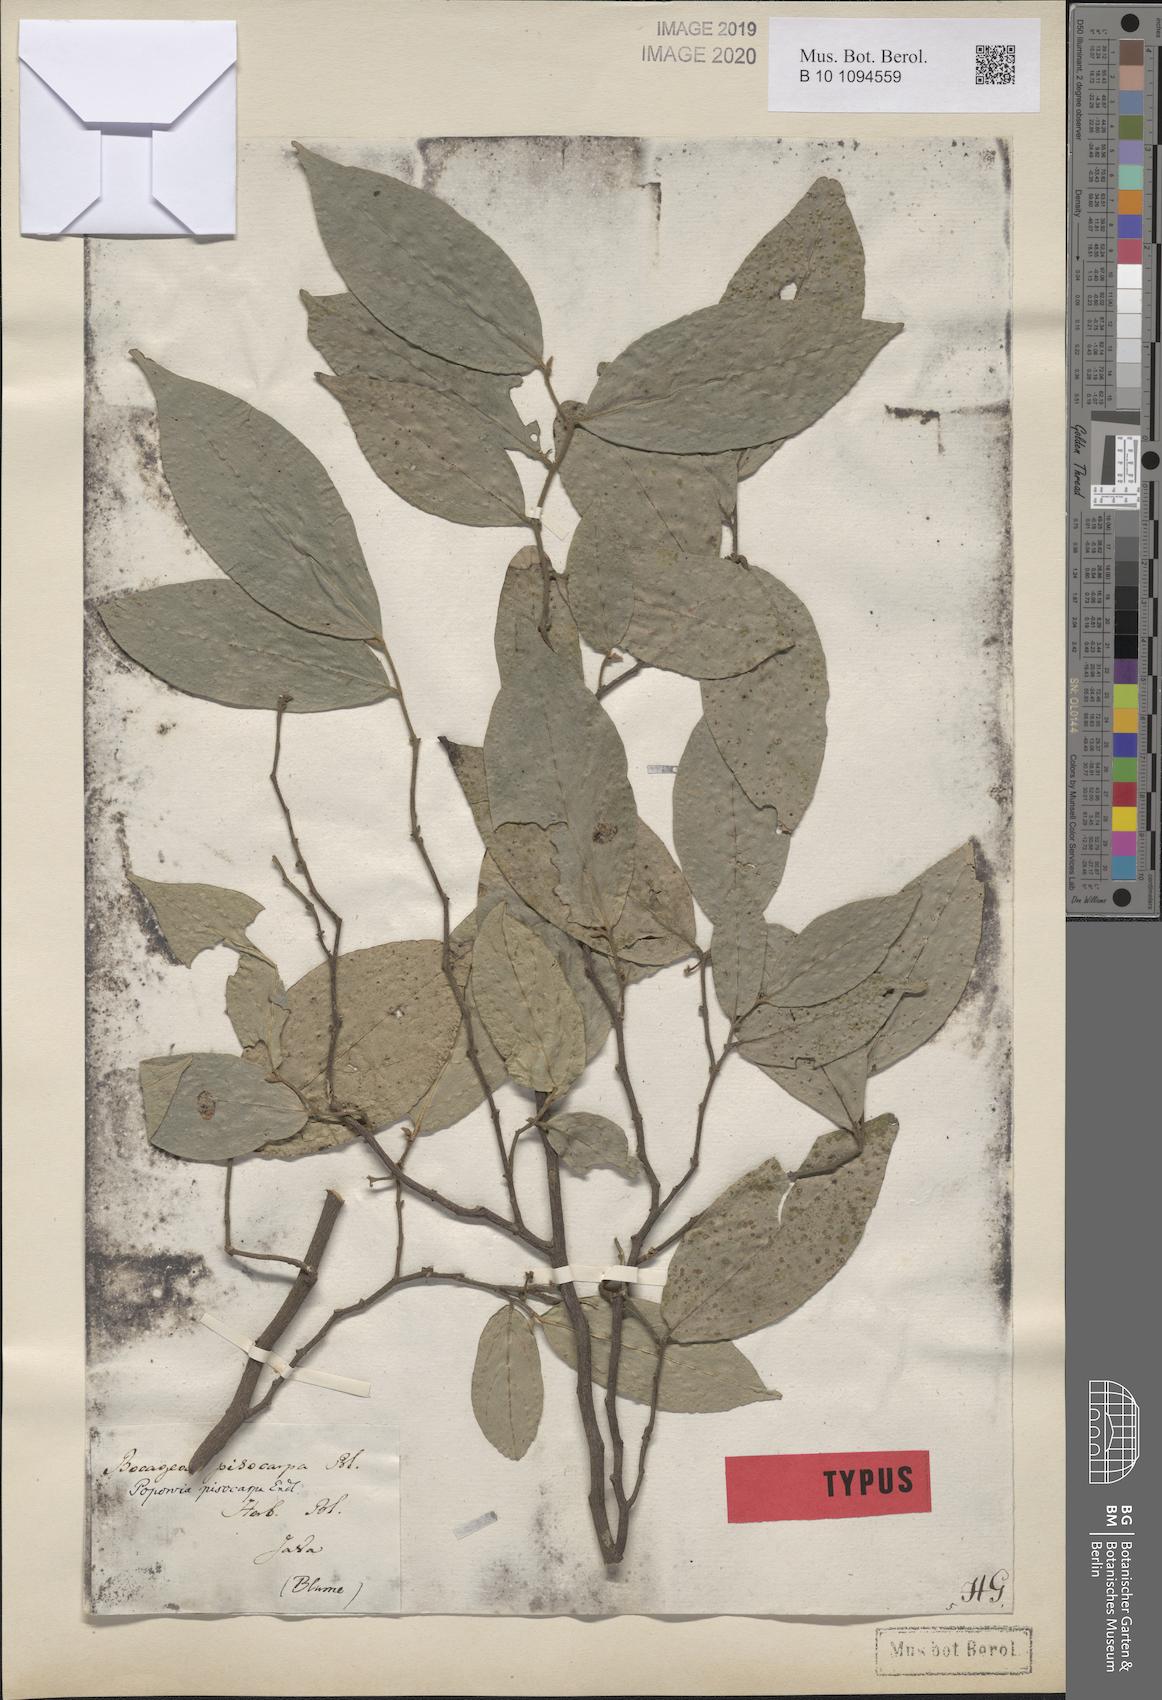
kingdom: Plantae
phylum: Tracheophyta
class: Magnoliopsida
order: Magnoliales
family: Annonaceae
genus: Popowia
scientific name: Popowia pisocarpa
